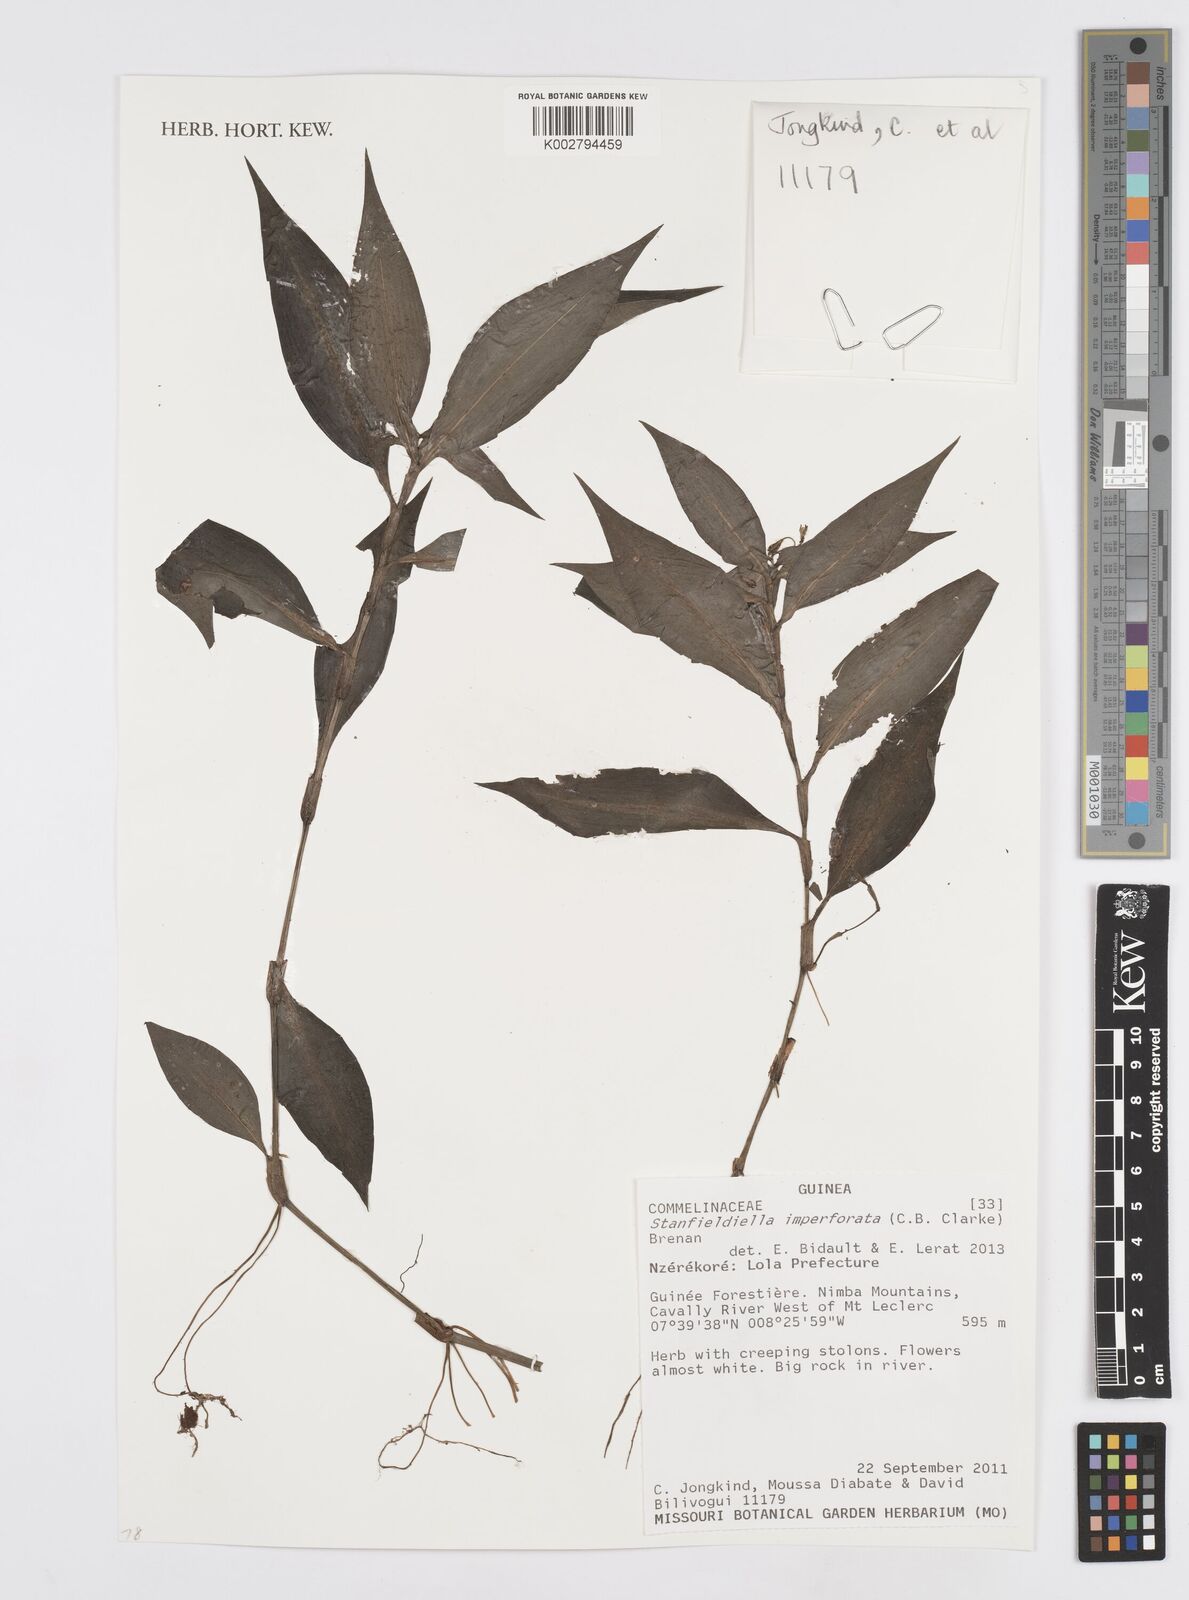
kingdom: Plantae
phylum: Tracheophyta
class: Liliopsida
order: Commelinales
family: Commelinaceae
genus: Stanfieldiella
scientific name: Stanfieldiella imperforata
